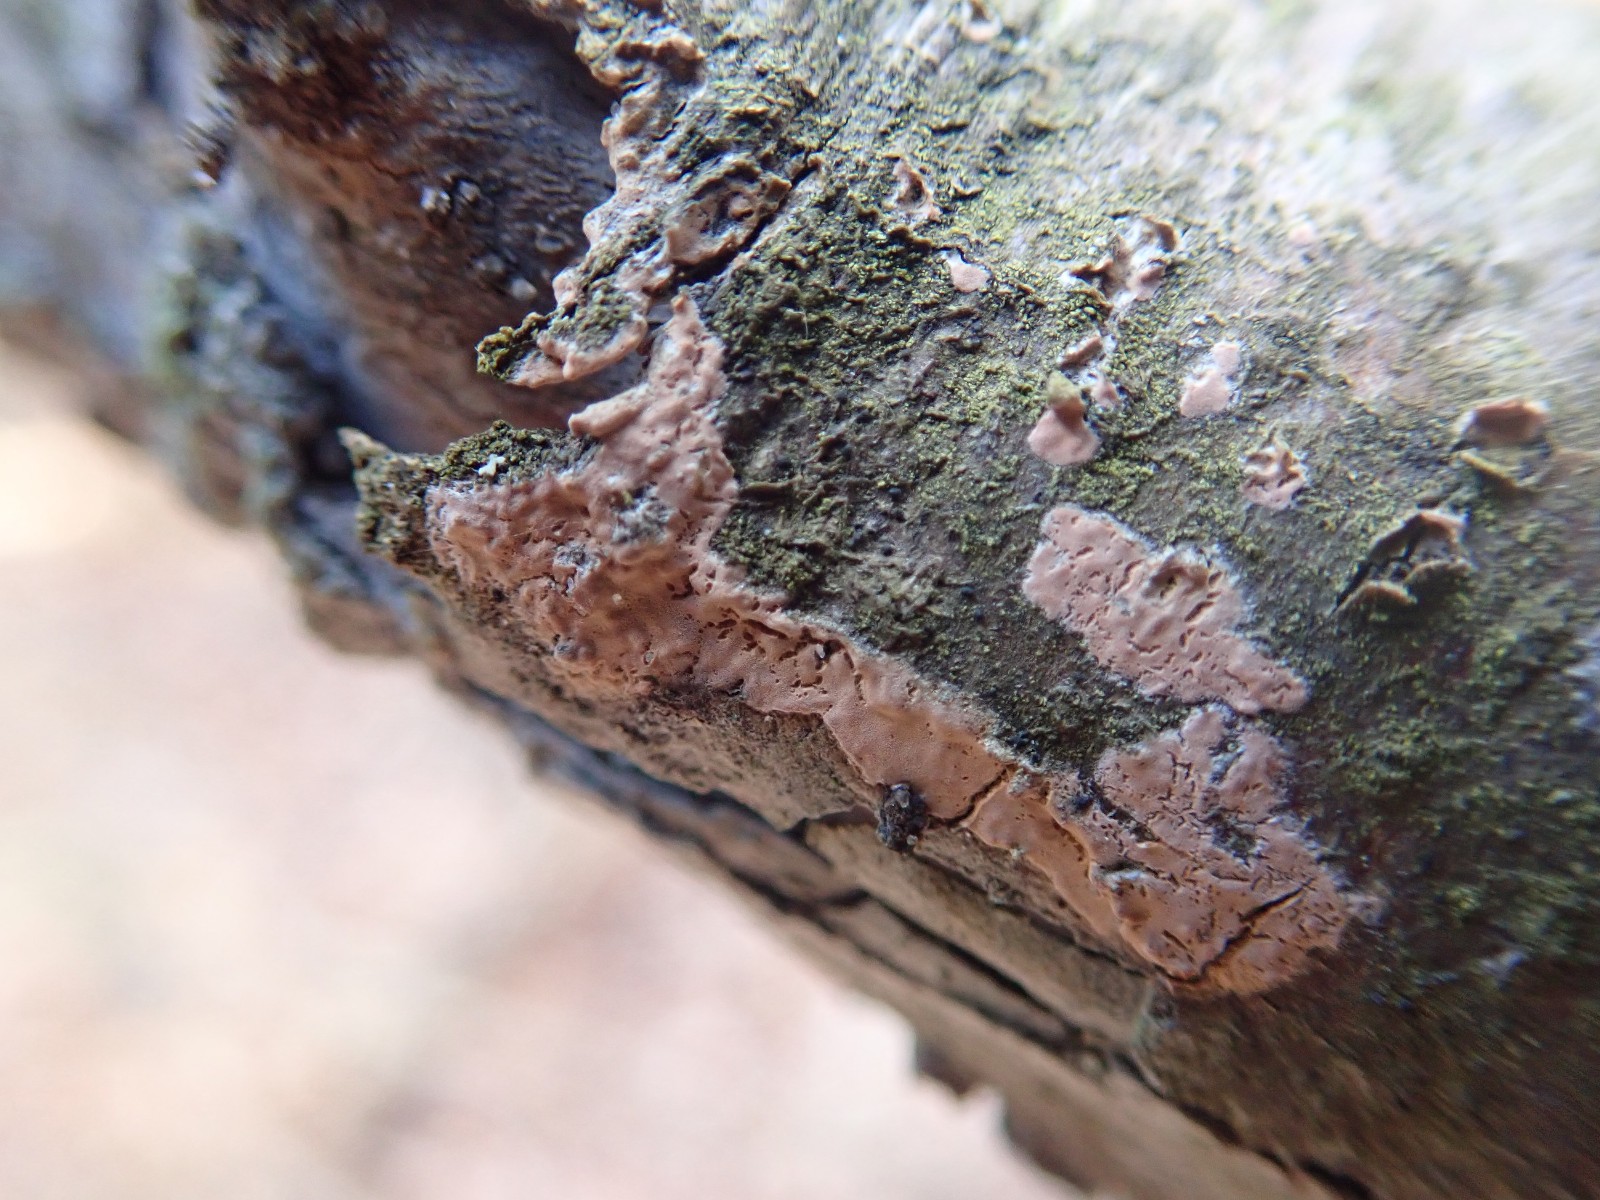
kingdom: Fungi
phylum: Basidiomycota
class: Agaricomycetes
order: Russulales
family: Peniophoraceae
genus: Peniophora
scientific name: Peniophora incarnata
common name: laksefarvet voksskind
